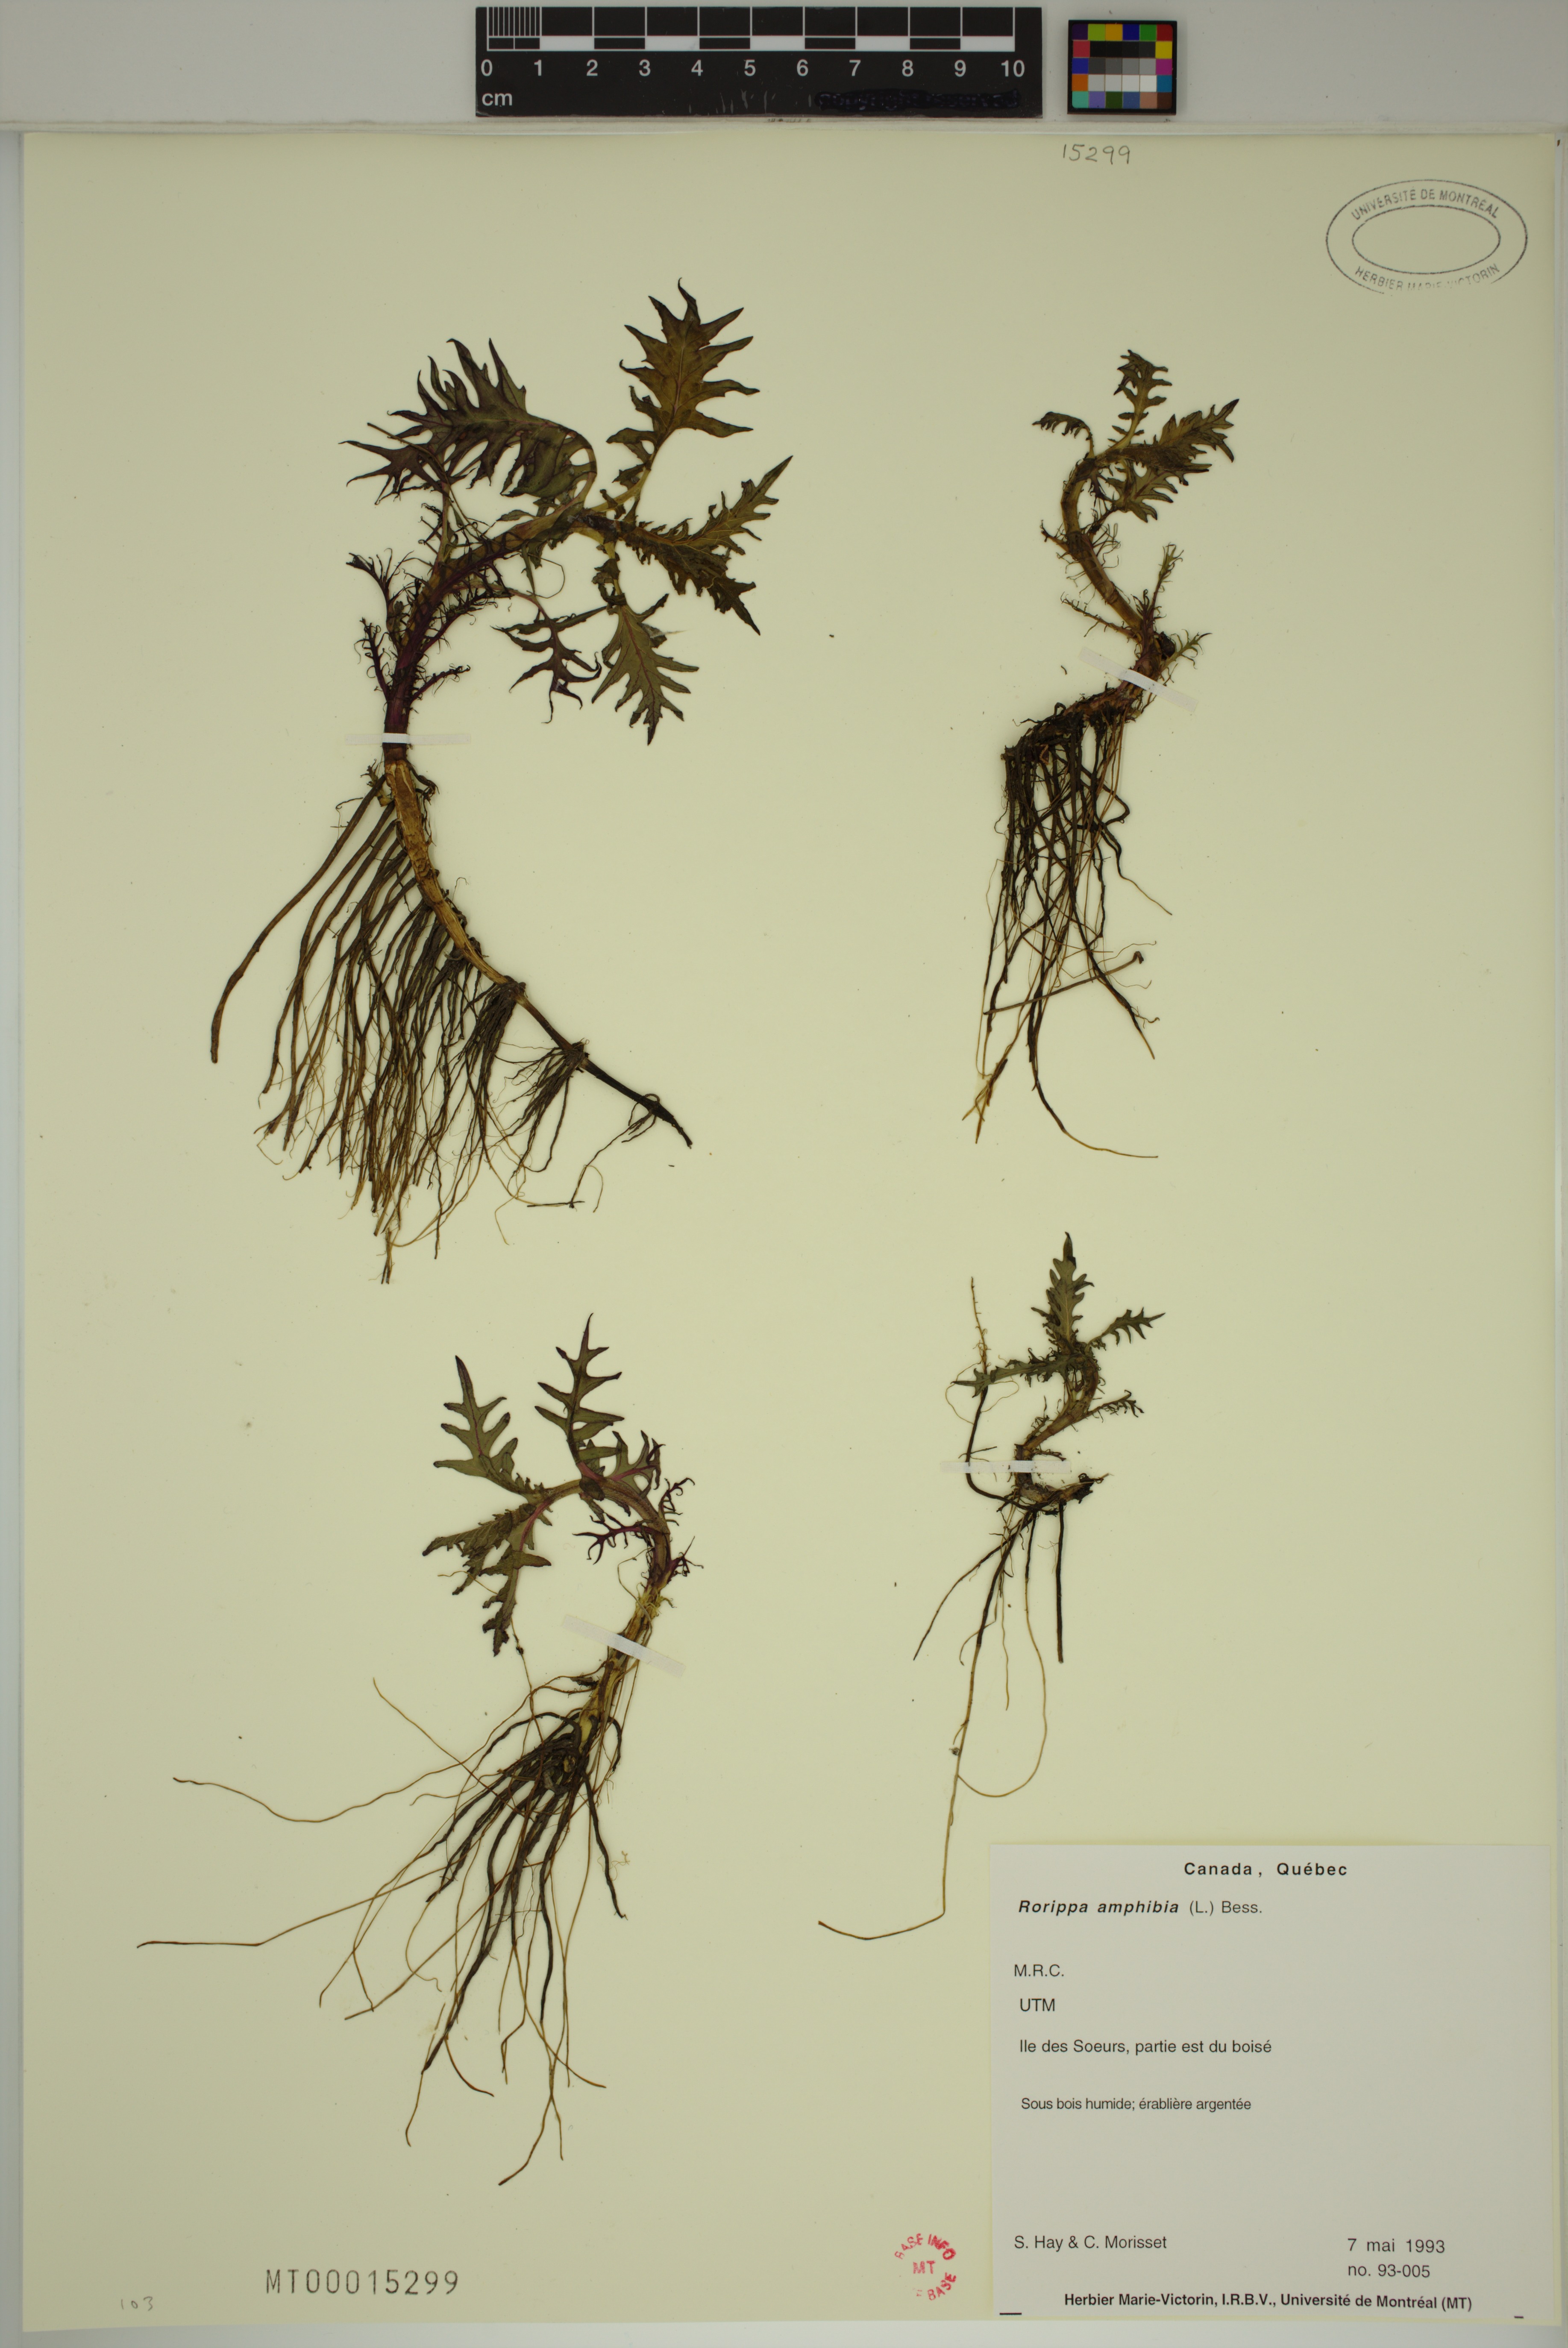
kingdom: Plantae
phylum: Tracheophyta
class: Magnoliopsida
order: Brassicales
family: Brassicaceae
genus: Rorippa
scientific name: Rorippa amphibia
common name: Great yellow-cress
